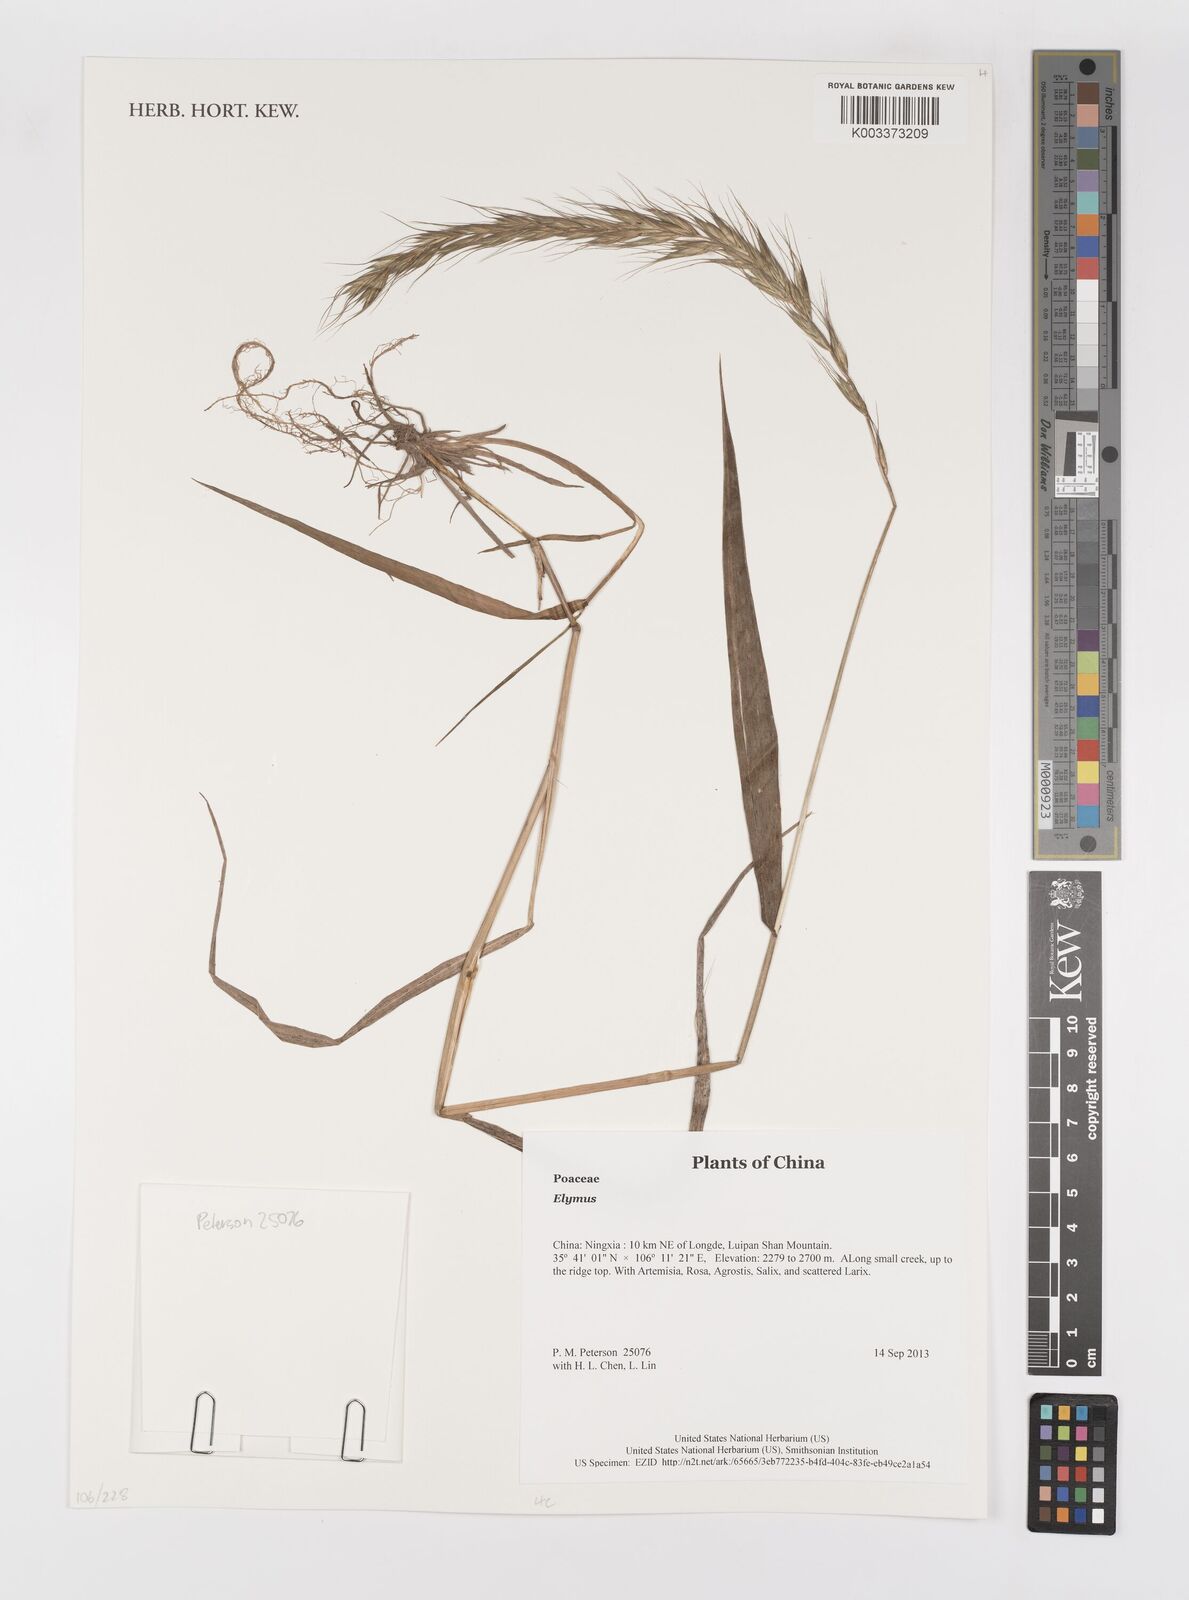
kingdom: Plantae
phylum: Tracheophyta
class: Liliopsida
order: Poales
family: Poaceae
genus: Elymus
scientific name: Elymus
